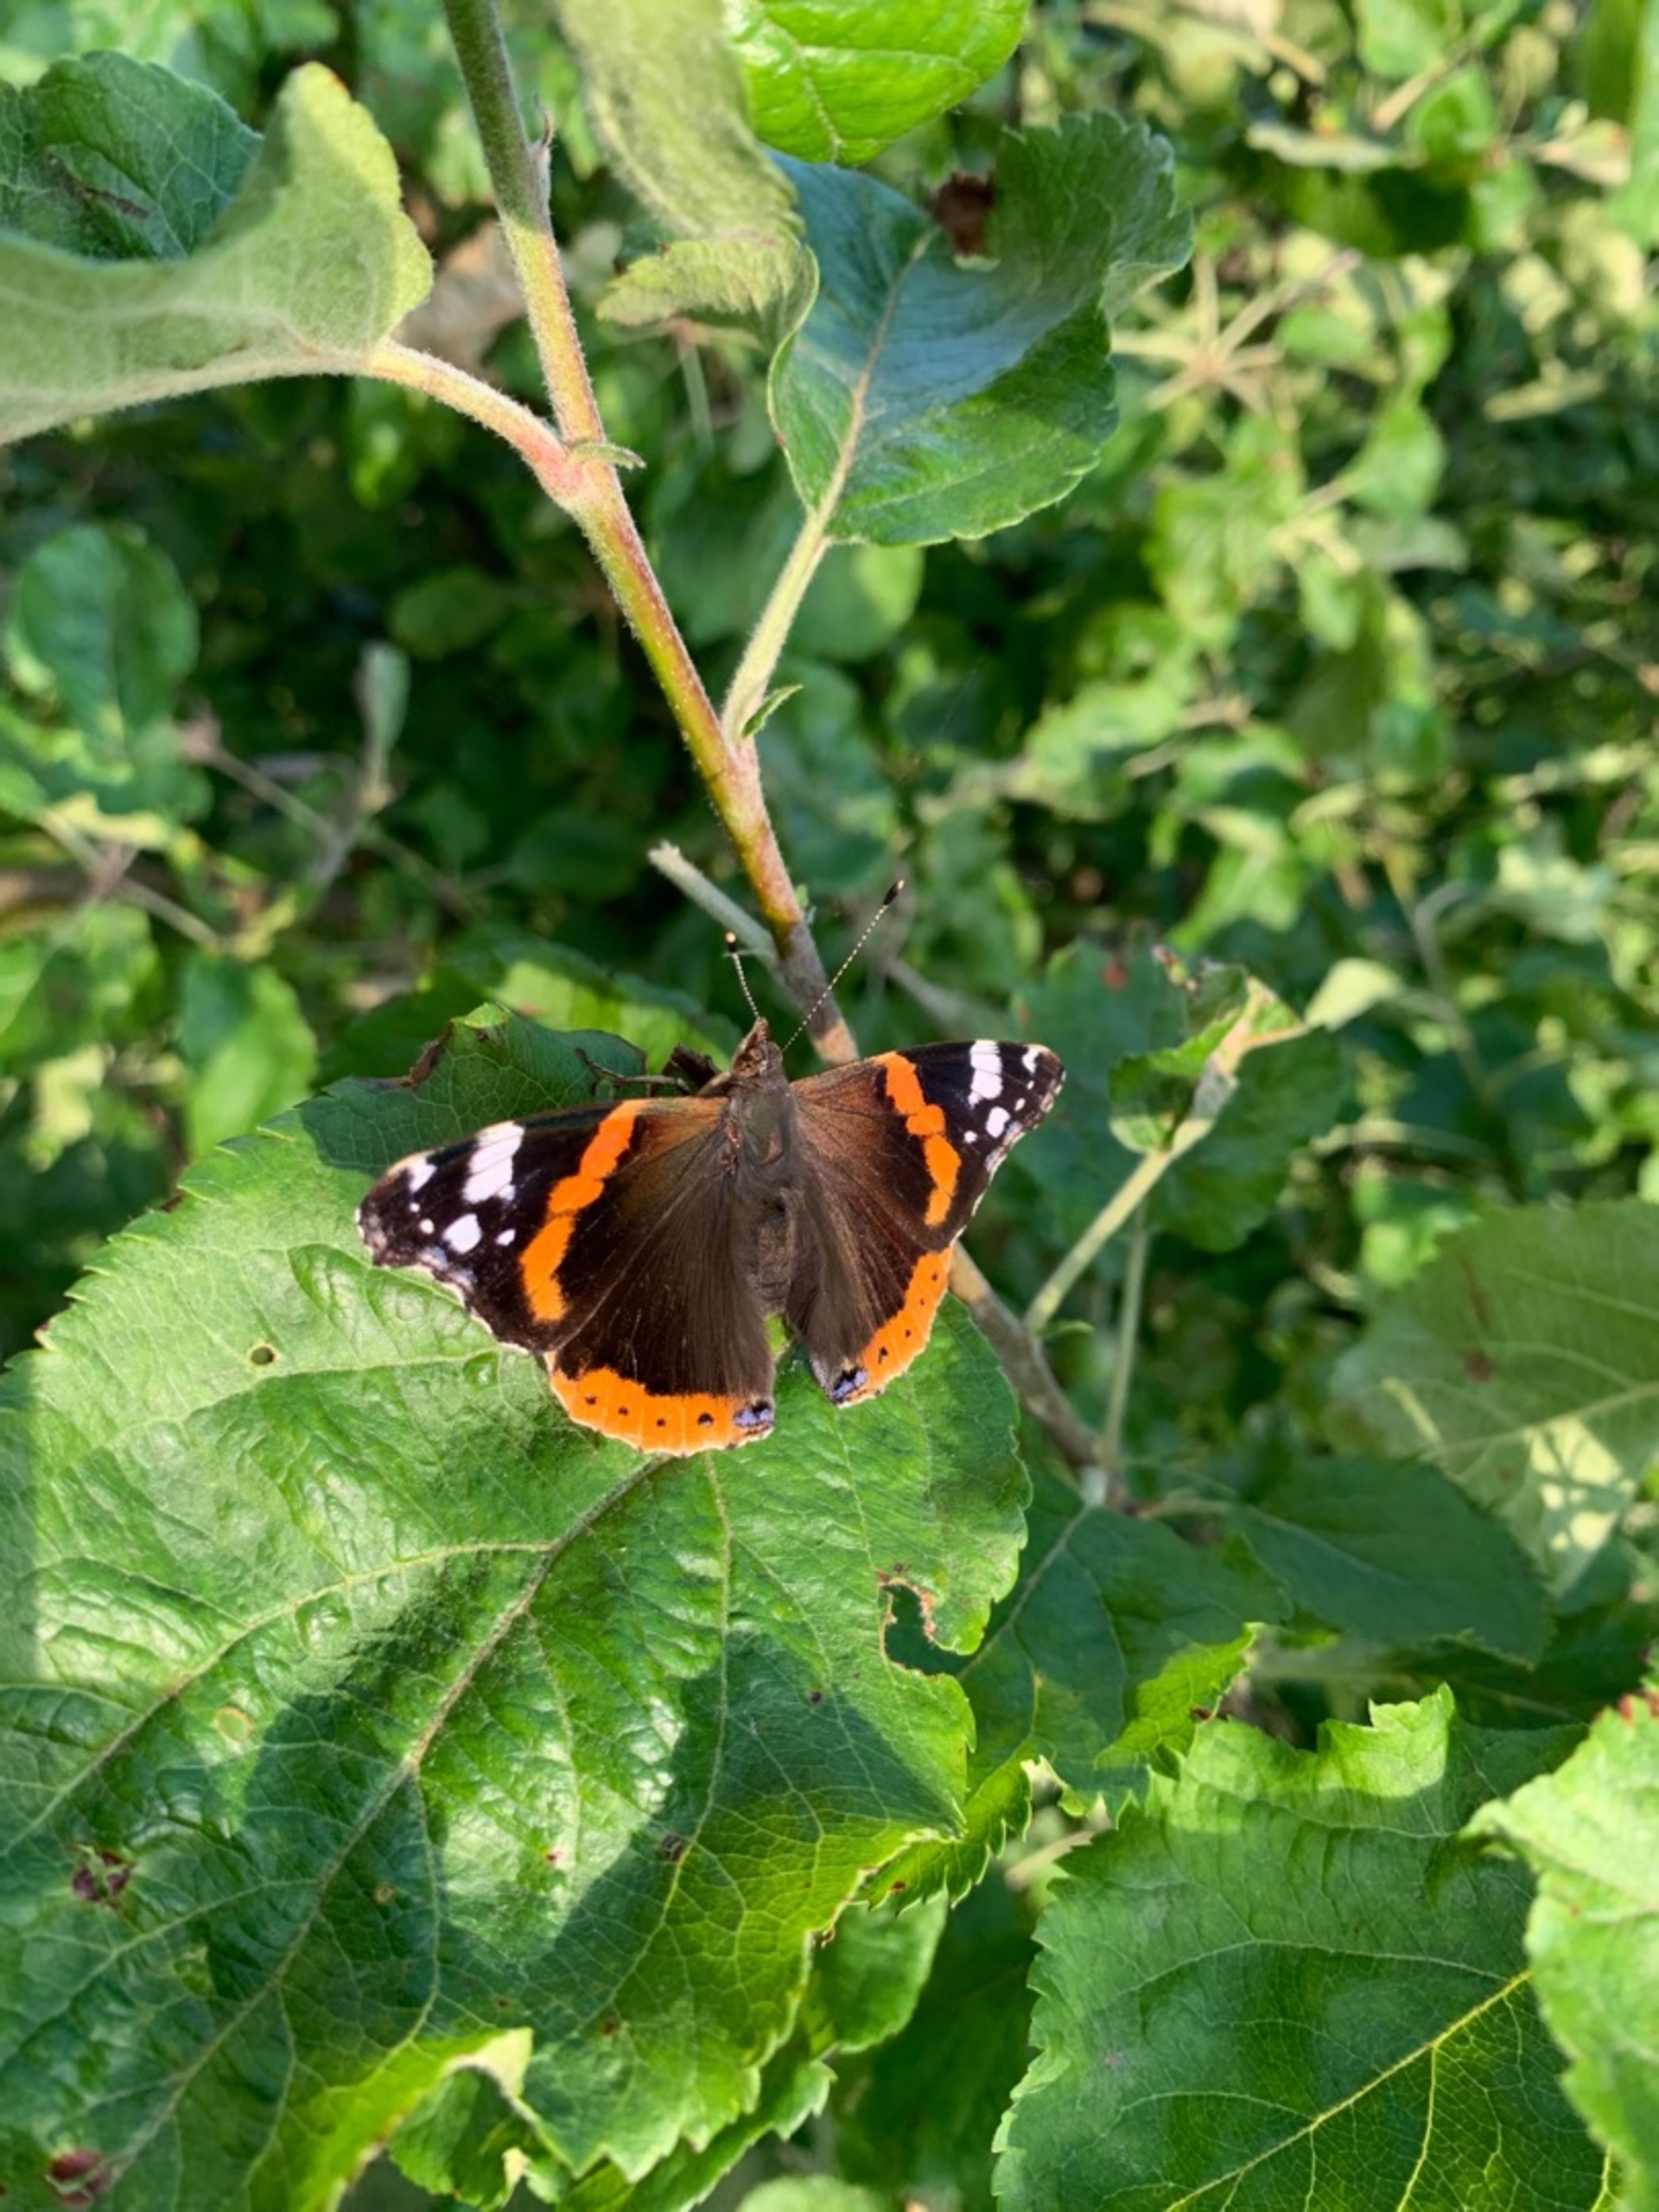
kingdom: Animalia
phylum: Arthropoda
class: Insecta
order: Lepidoptera
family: Nymphalidae
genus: Vanessa
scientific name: Vanessa atalanta
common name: Admiral
